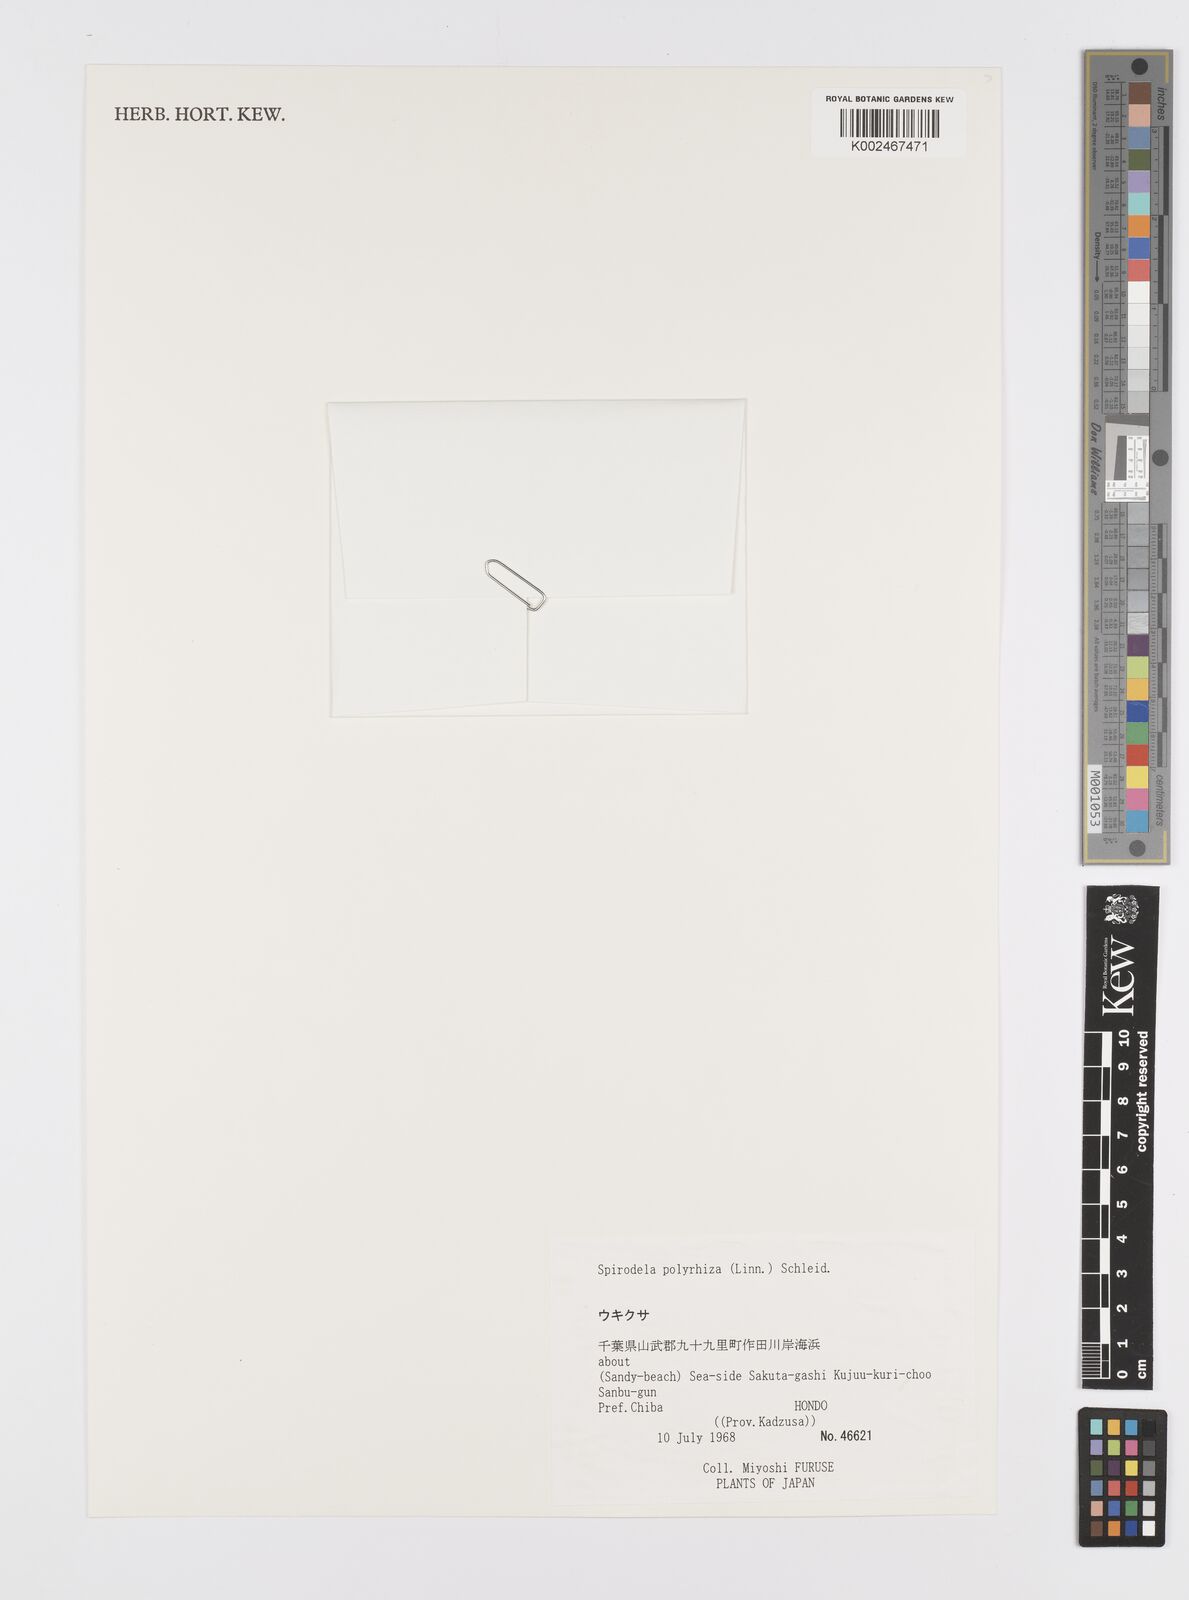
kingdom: Plantae
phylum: Tracheophyta
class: Liliopsida
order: Alismatales
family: Araceae
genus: Spirodela
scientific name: Spirodela polyrhiza
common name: Great duckweed
